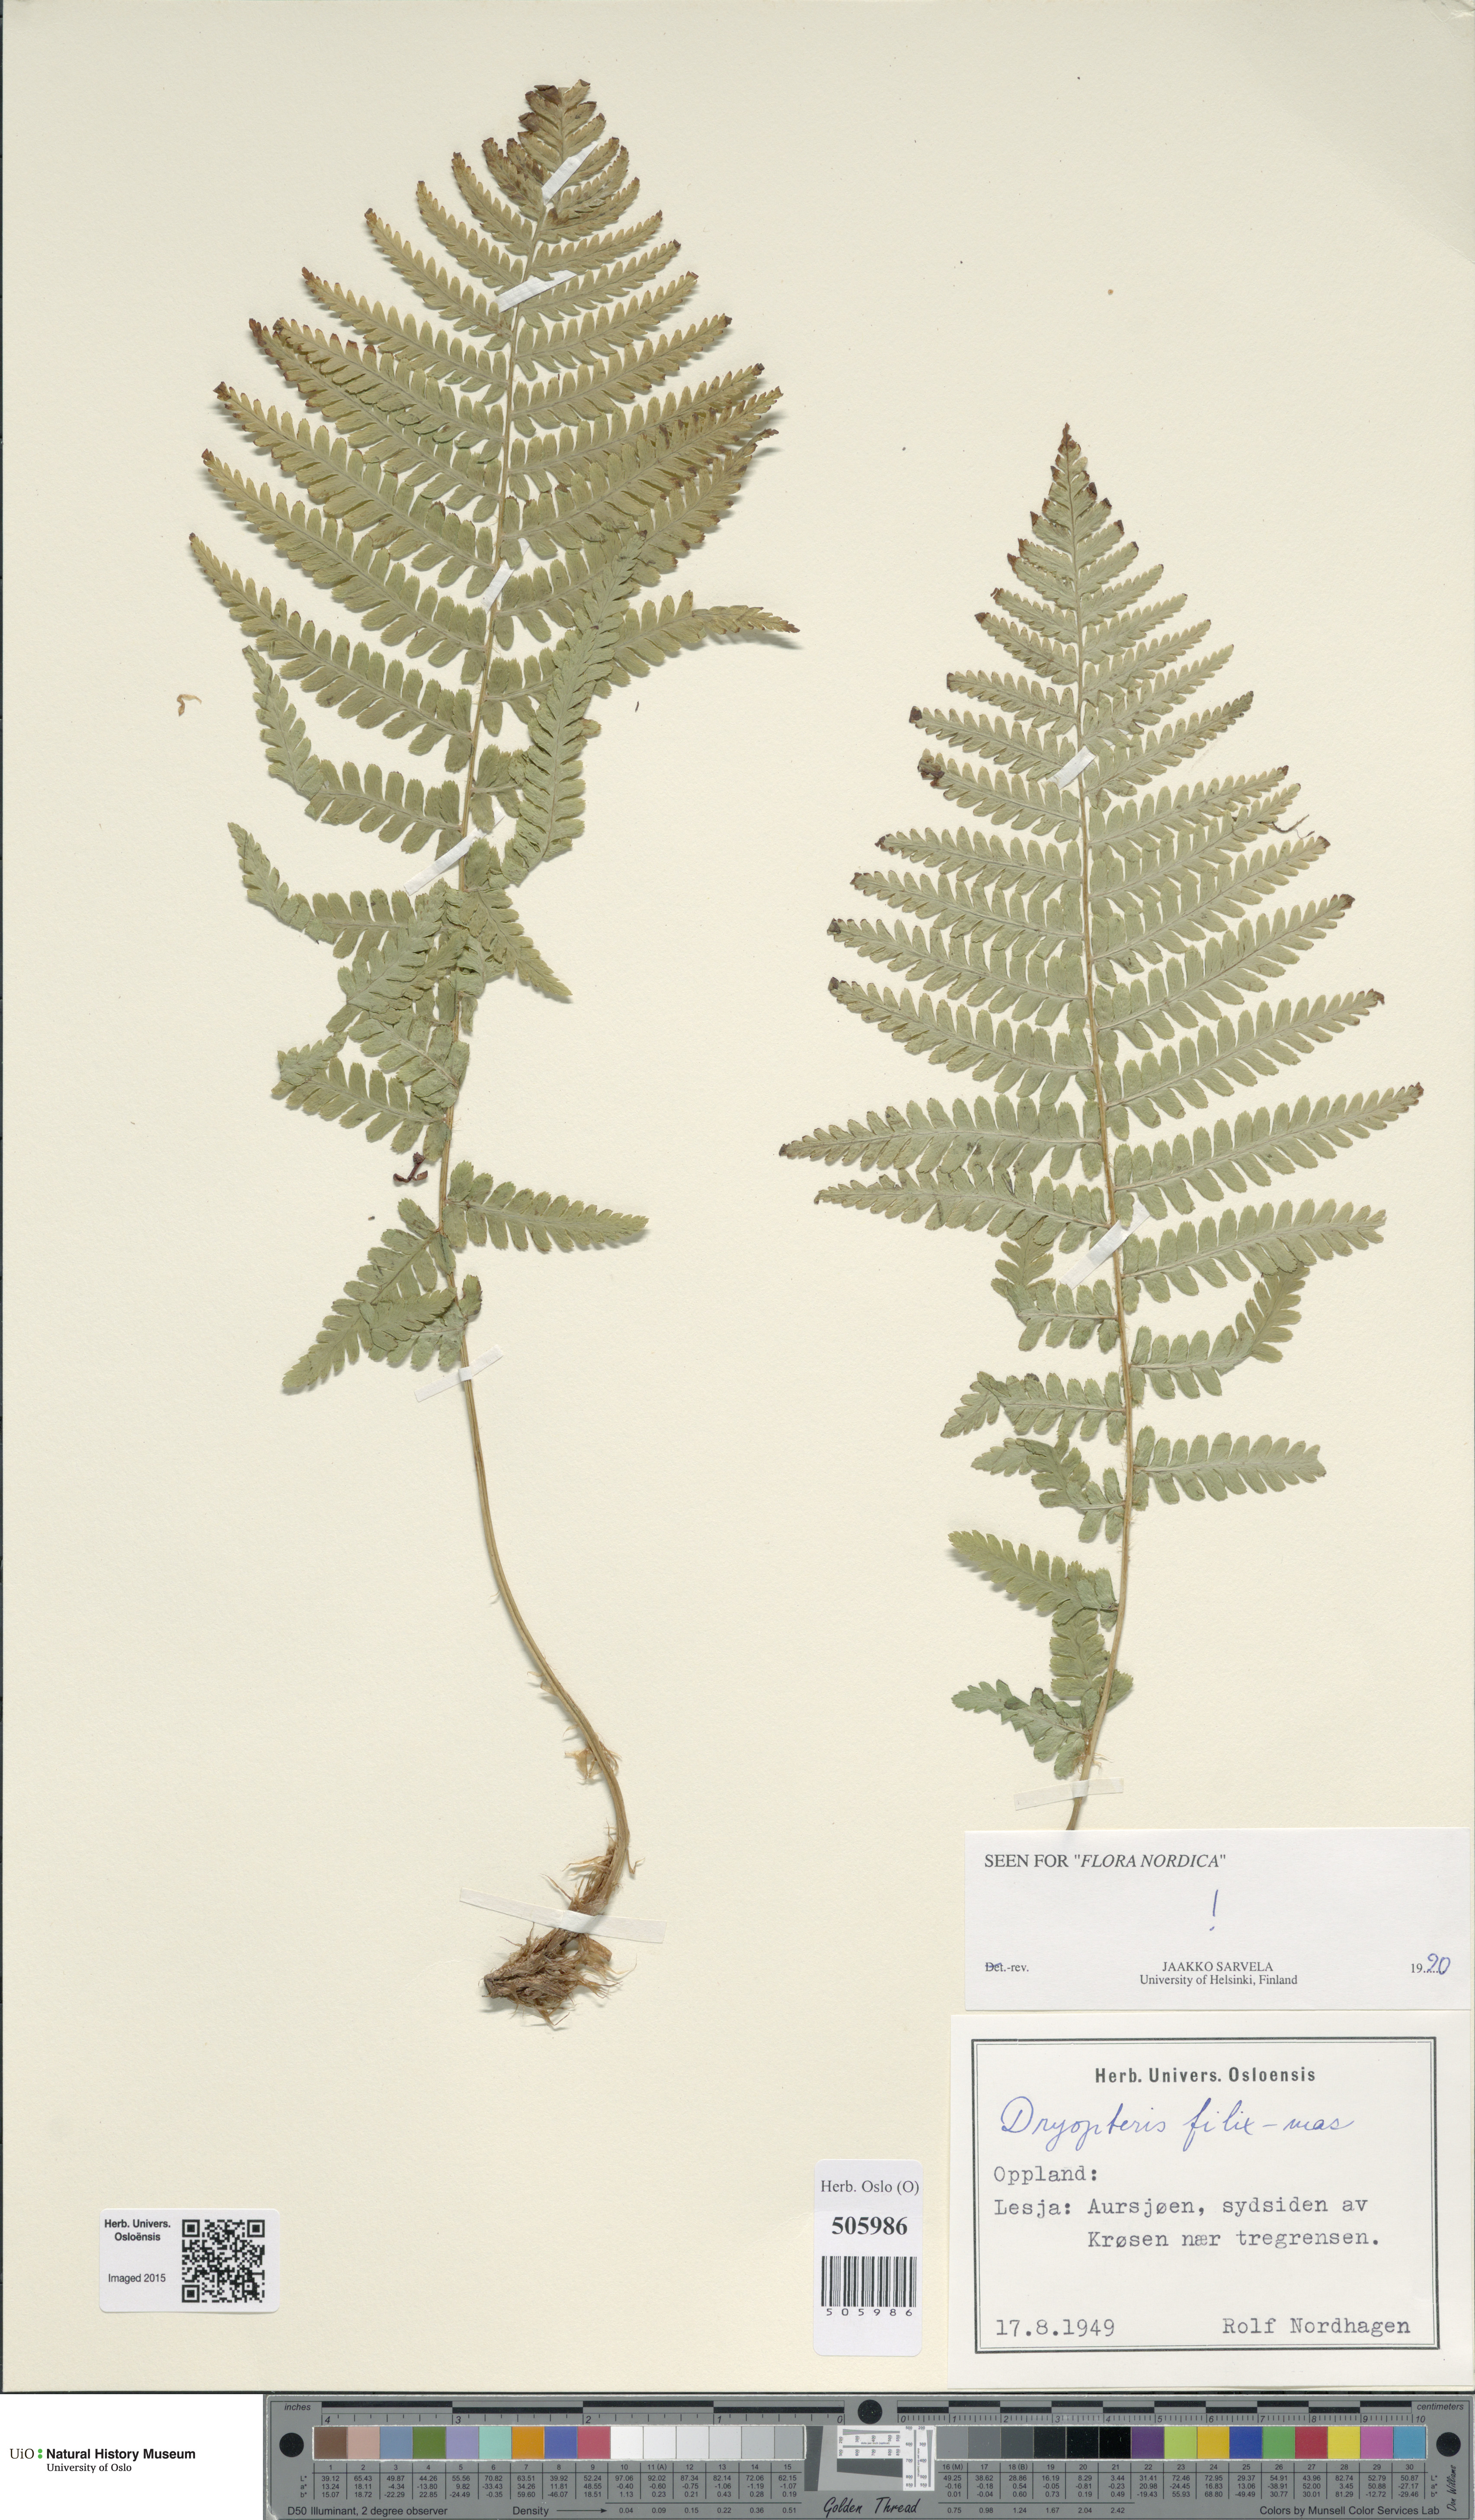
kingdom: Plantae
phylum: Tracheophyta
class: Polypodiopsida
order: Polypodiales
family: Dryopteridaceae
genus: Dryopteris
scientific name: Dryopteris filix-mas
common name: Male fern
